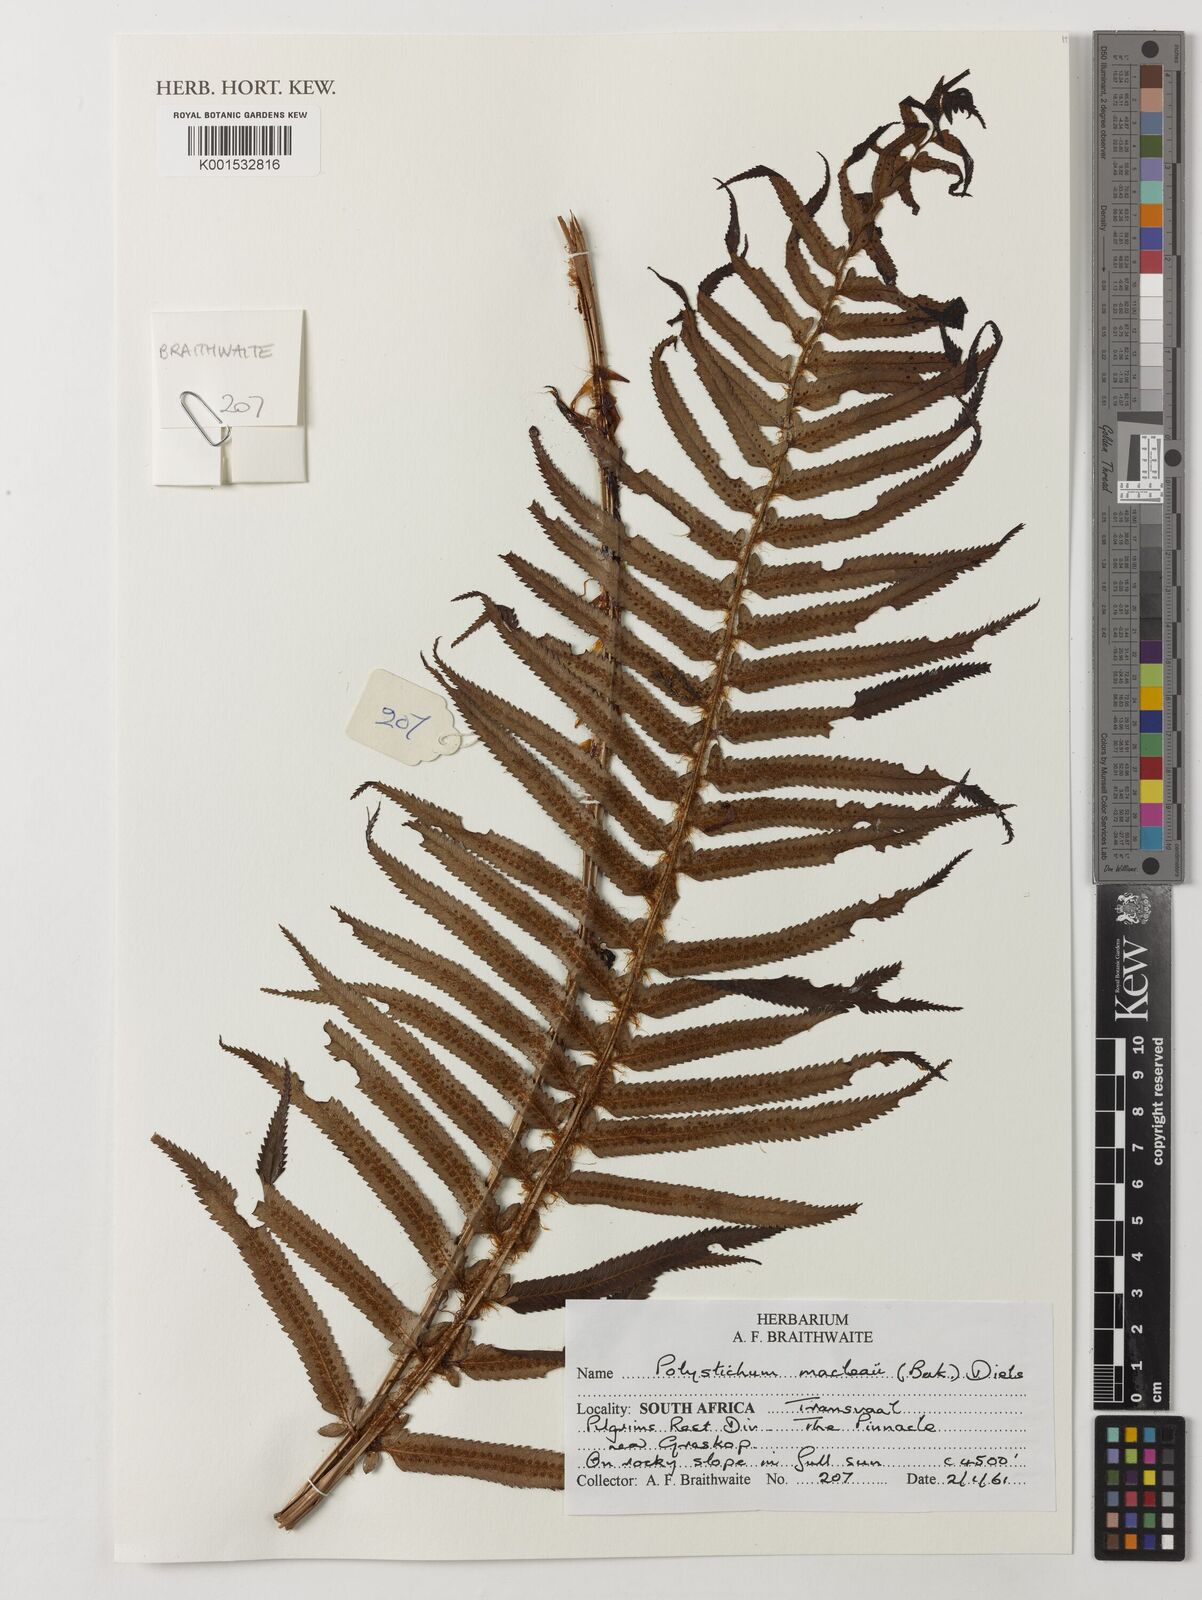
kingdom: Plantae
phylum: Tracheophyta
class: Polypodiopsida
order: Polypodiales
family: Dryopteridaceae
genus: Polystichum
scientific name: Polystichum macleae
